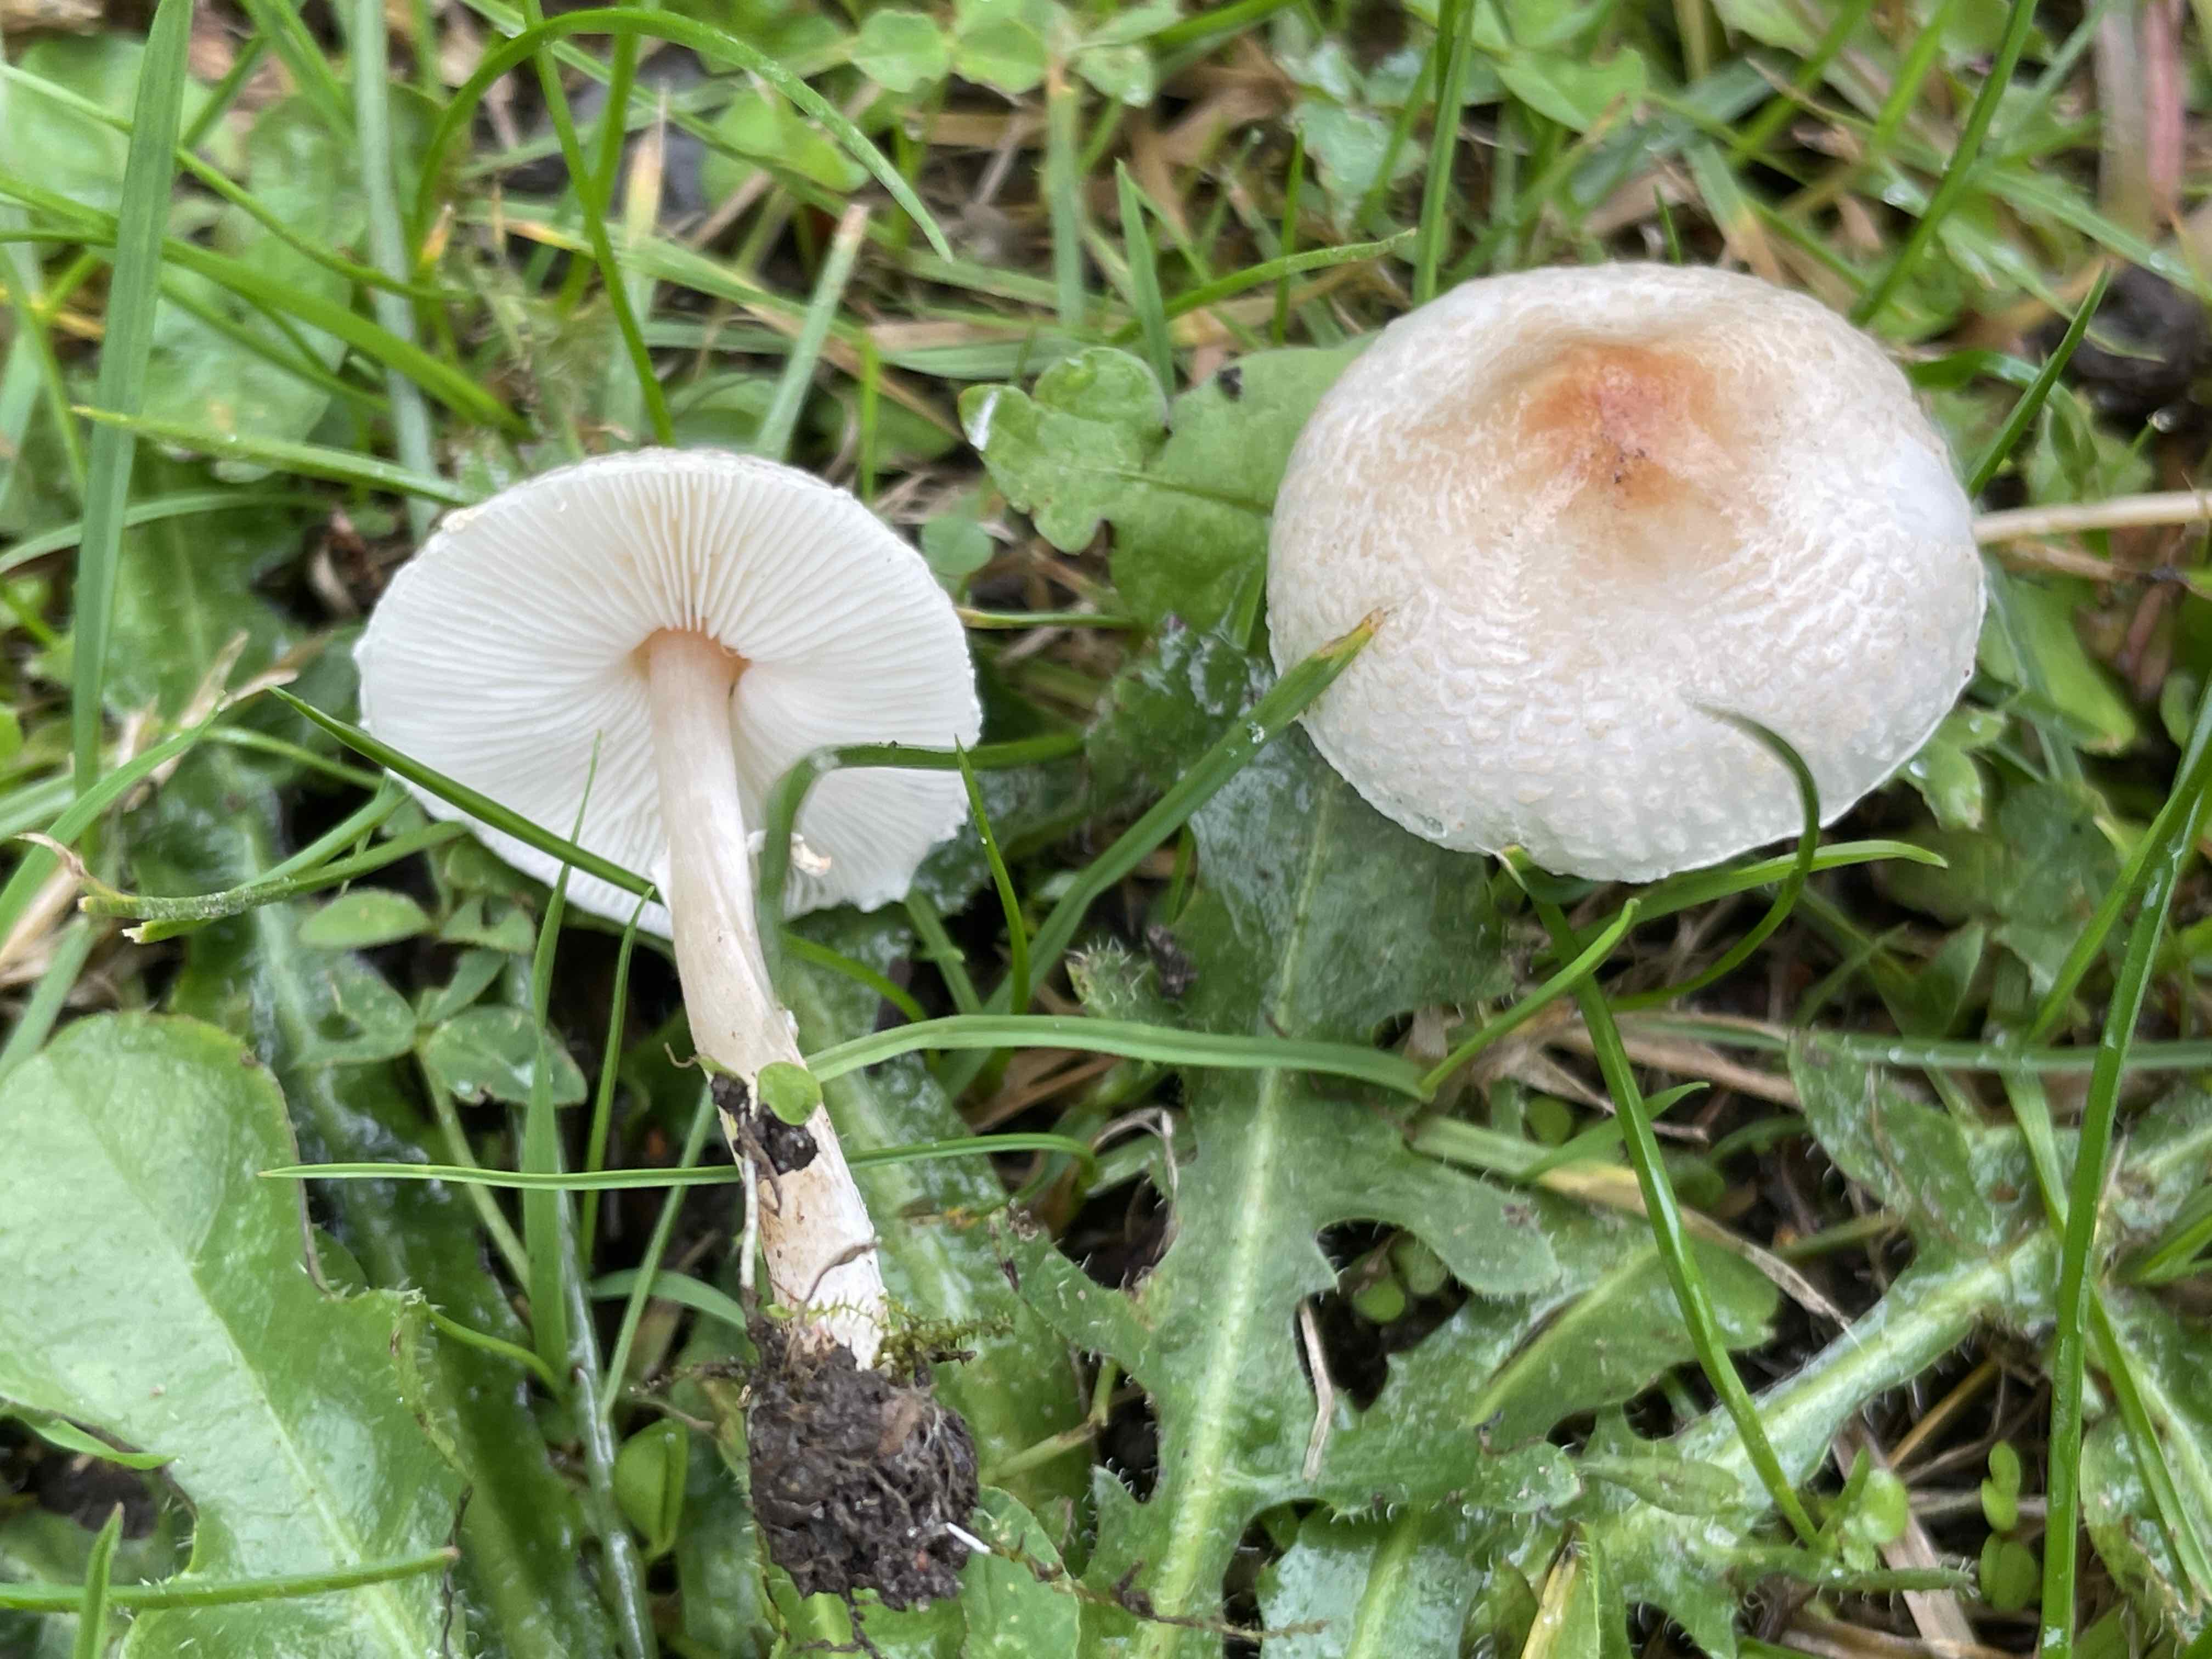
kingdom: Fungi
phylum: Basidiomycota
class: Agaricomycetes
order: Agaricales
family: Agaricaceae
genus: Lepiota
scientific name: Lepiota cristata
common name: stinkende parasolhat
